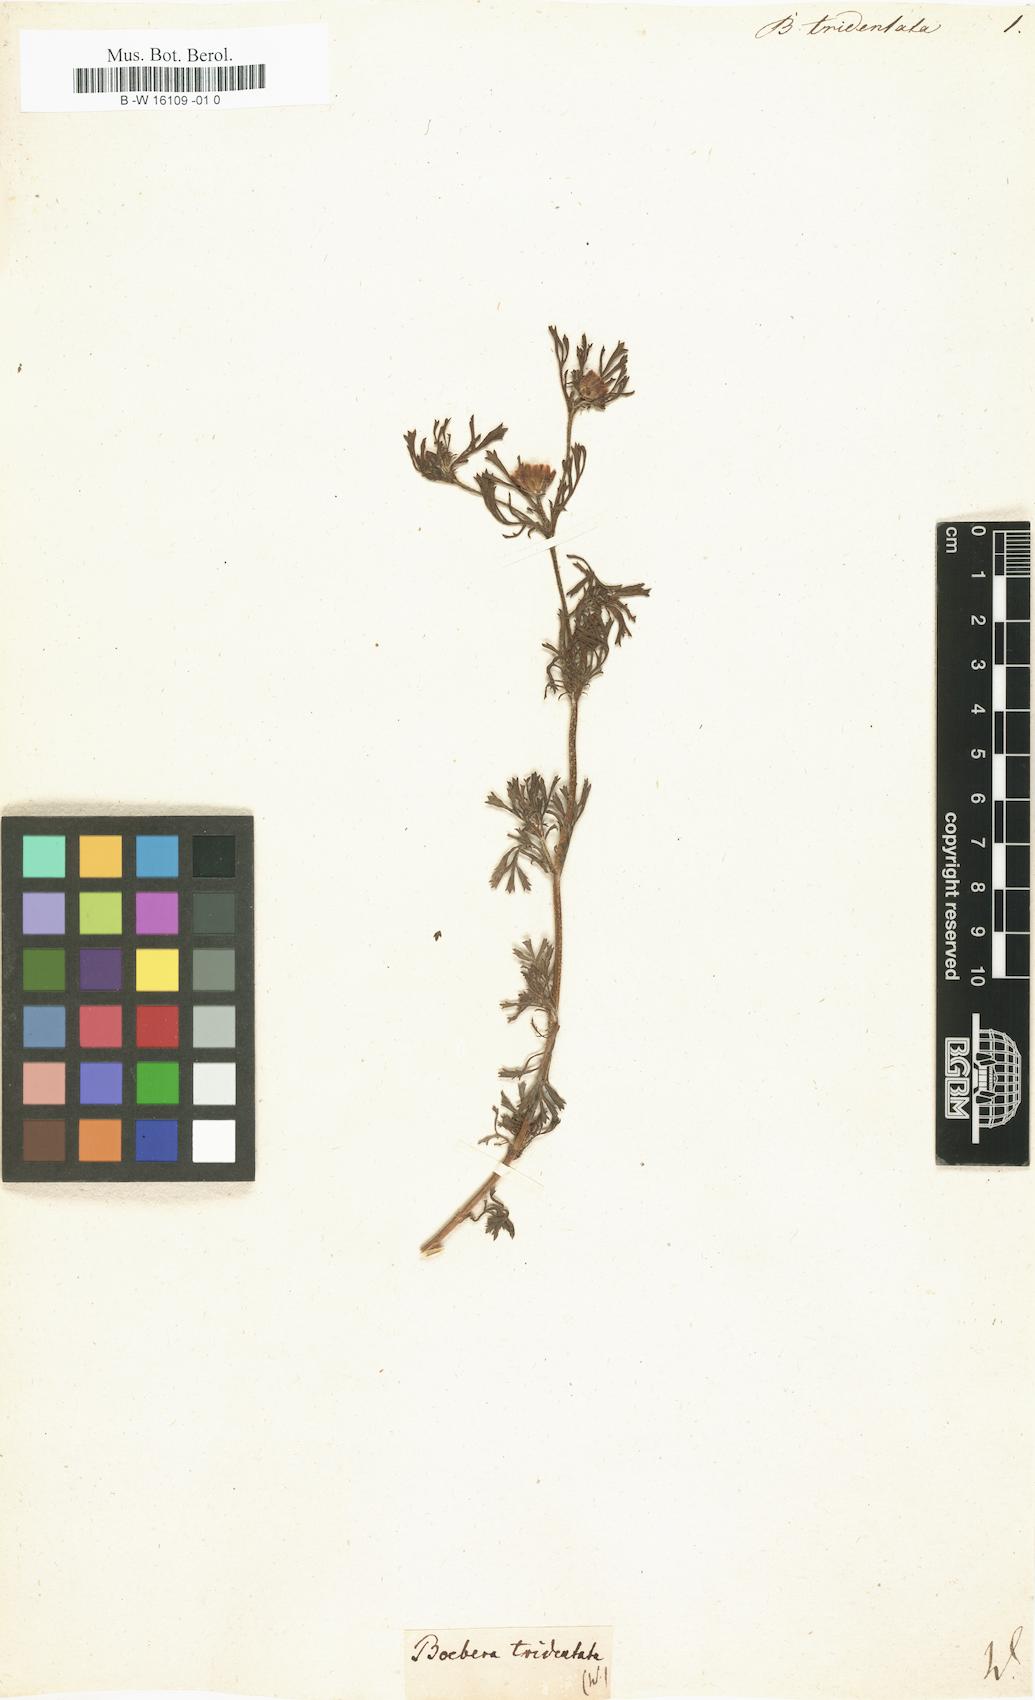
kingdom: Plantae
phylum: Tracheophyta
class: Magnoliopsida
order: Asterales
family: Asteraceae
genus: Dyssodia
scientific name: Dyssodia
